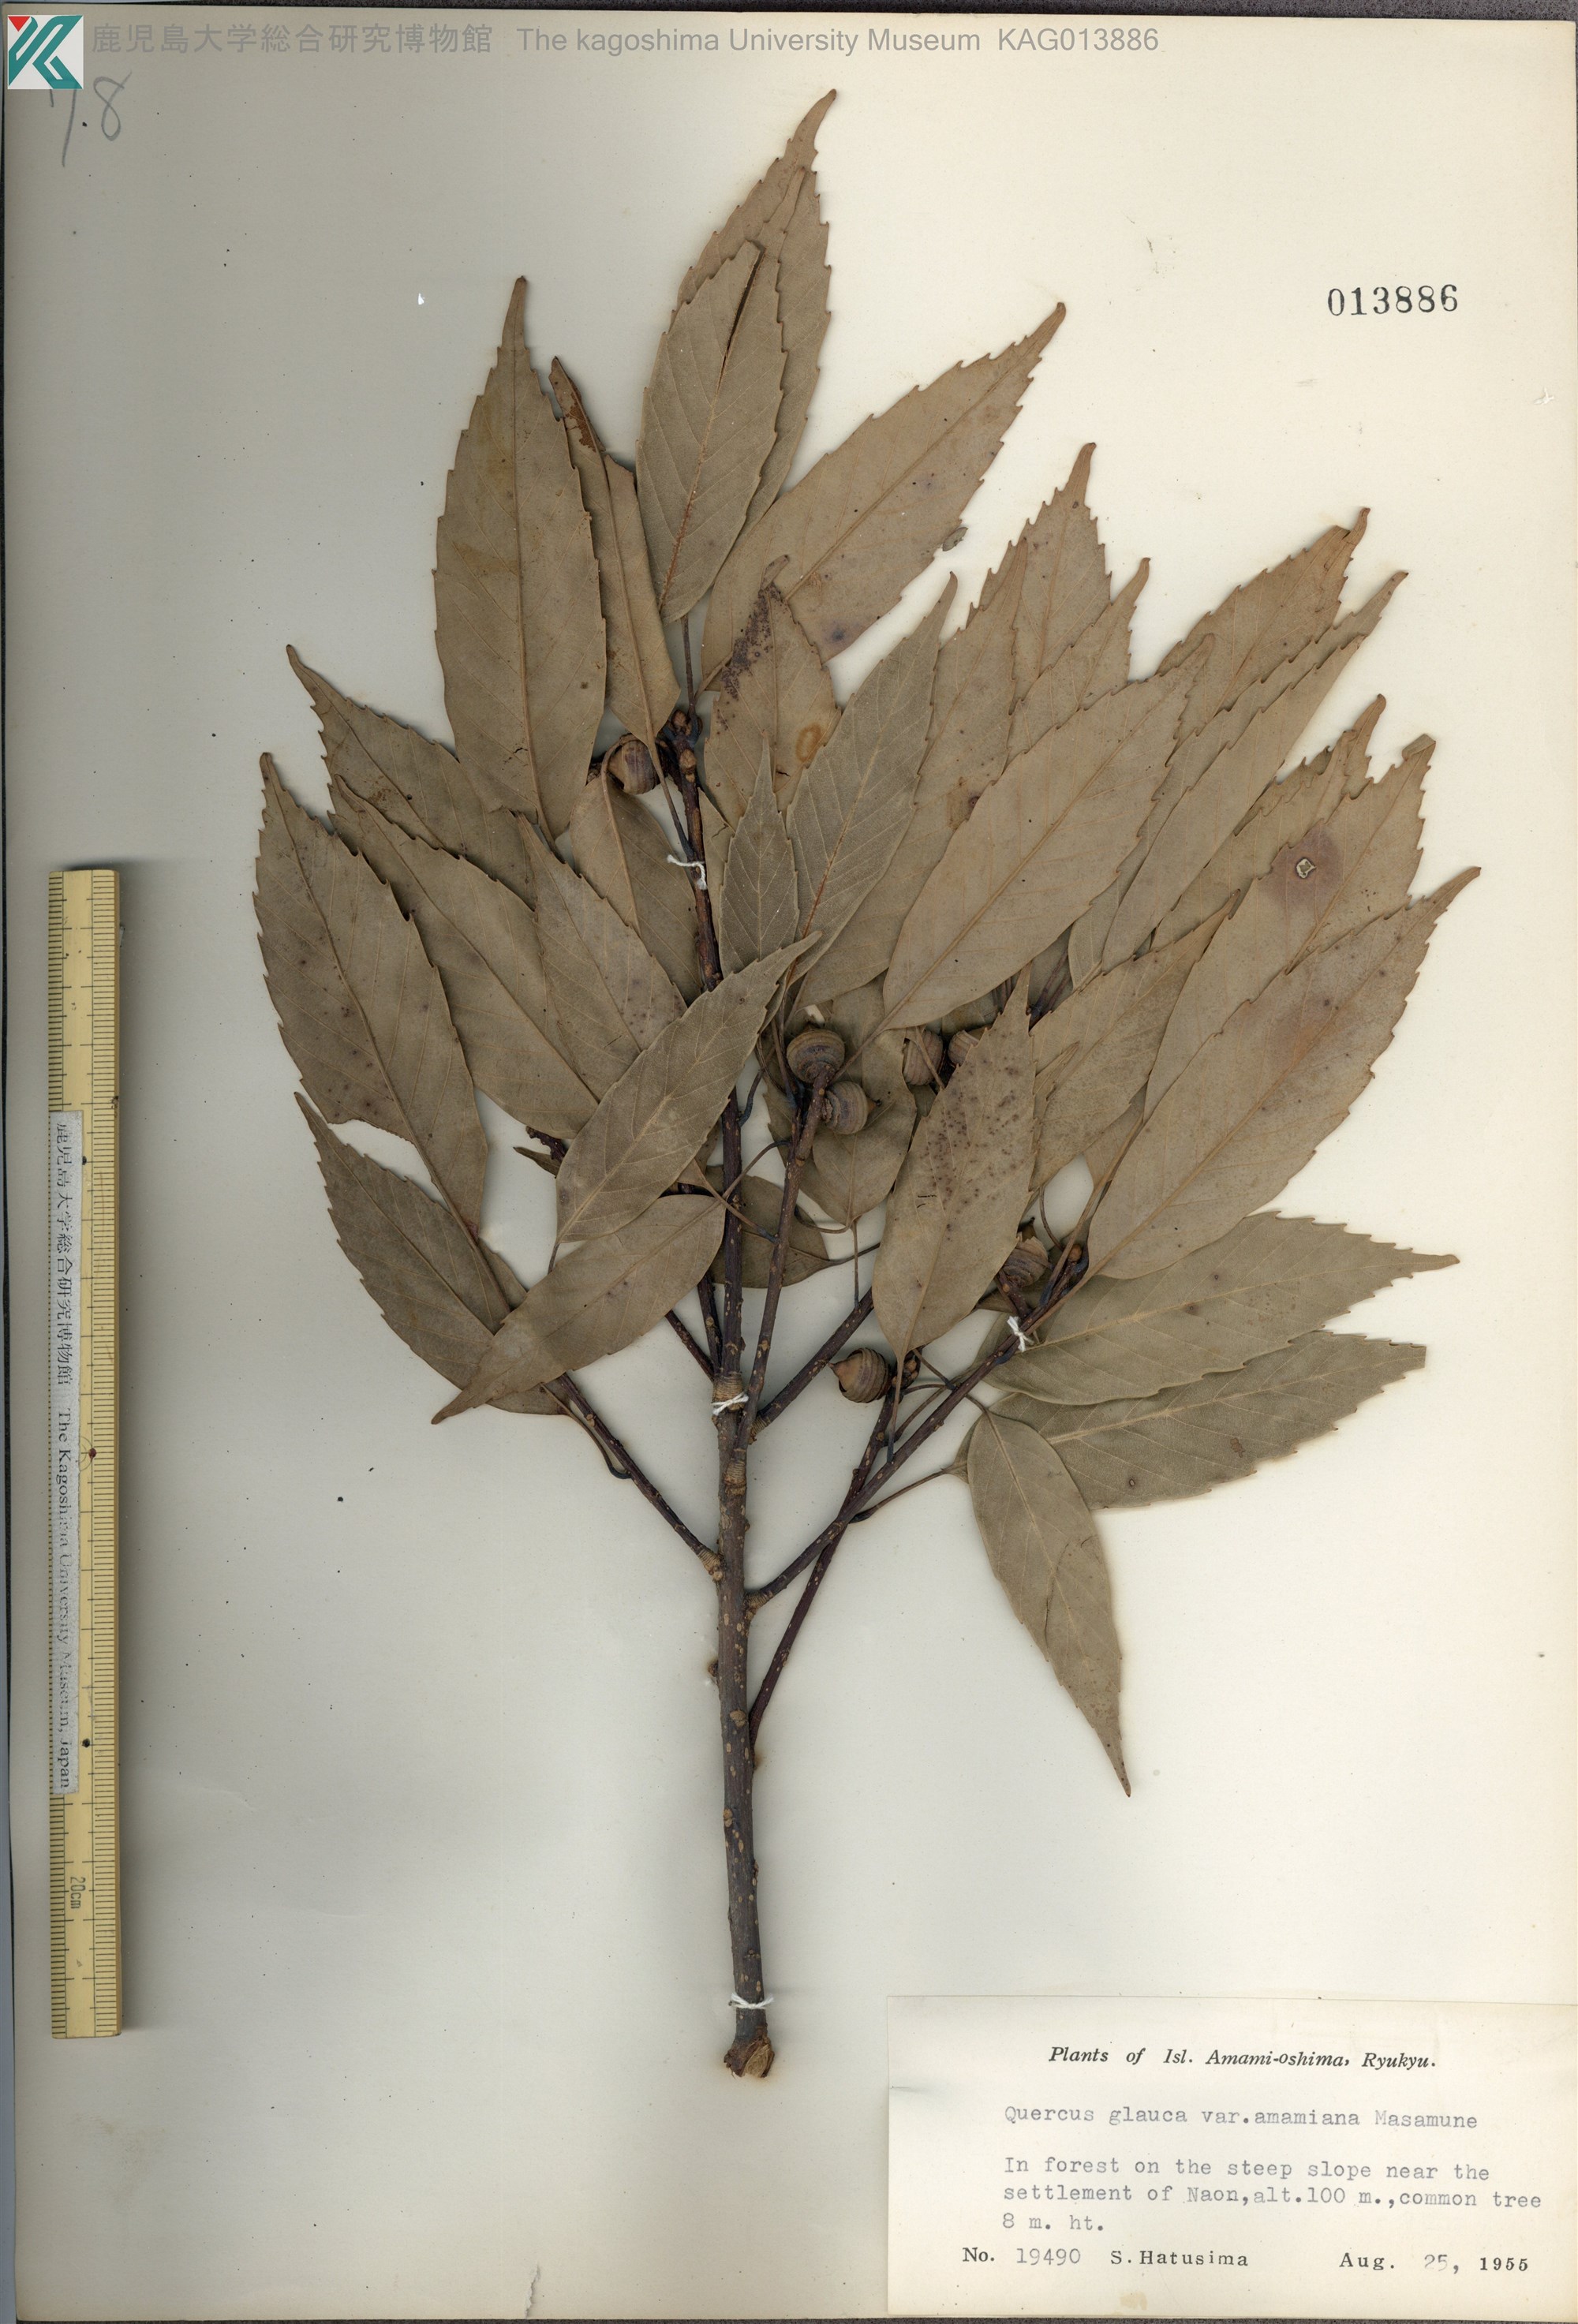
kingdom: Plantae
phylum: Tracheophyta
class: Magnoliopsida
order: Fagales
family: Fagaceae
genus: Quercus
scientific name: Quercus glauca
